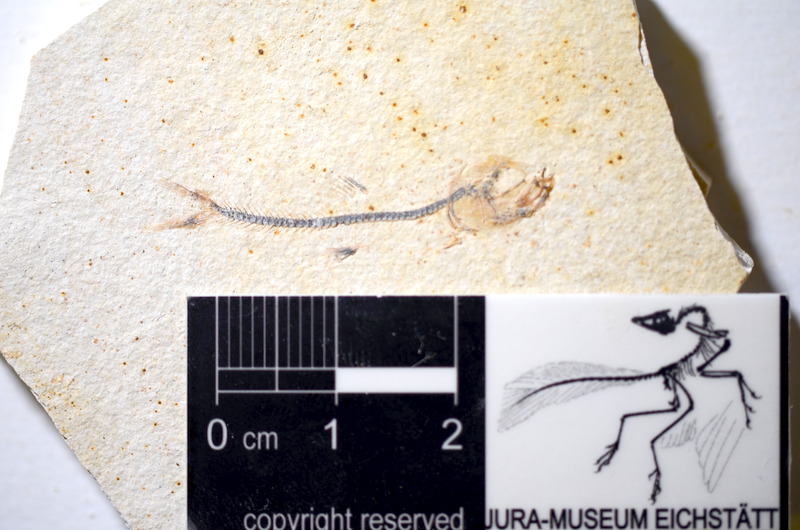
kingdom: Animalia
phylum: Chordata
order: Salmoniformes
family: Orthogonikleithridae
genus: Orthogonikleithrus
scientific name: Orthogonikleithrus hoelli
